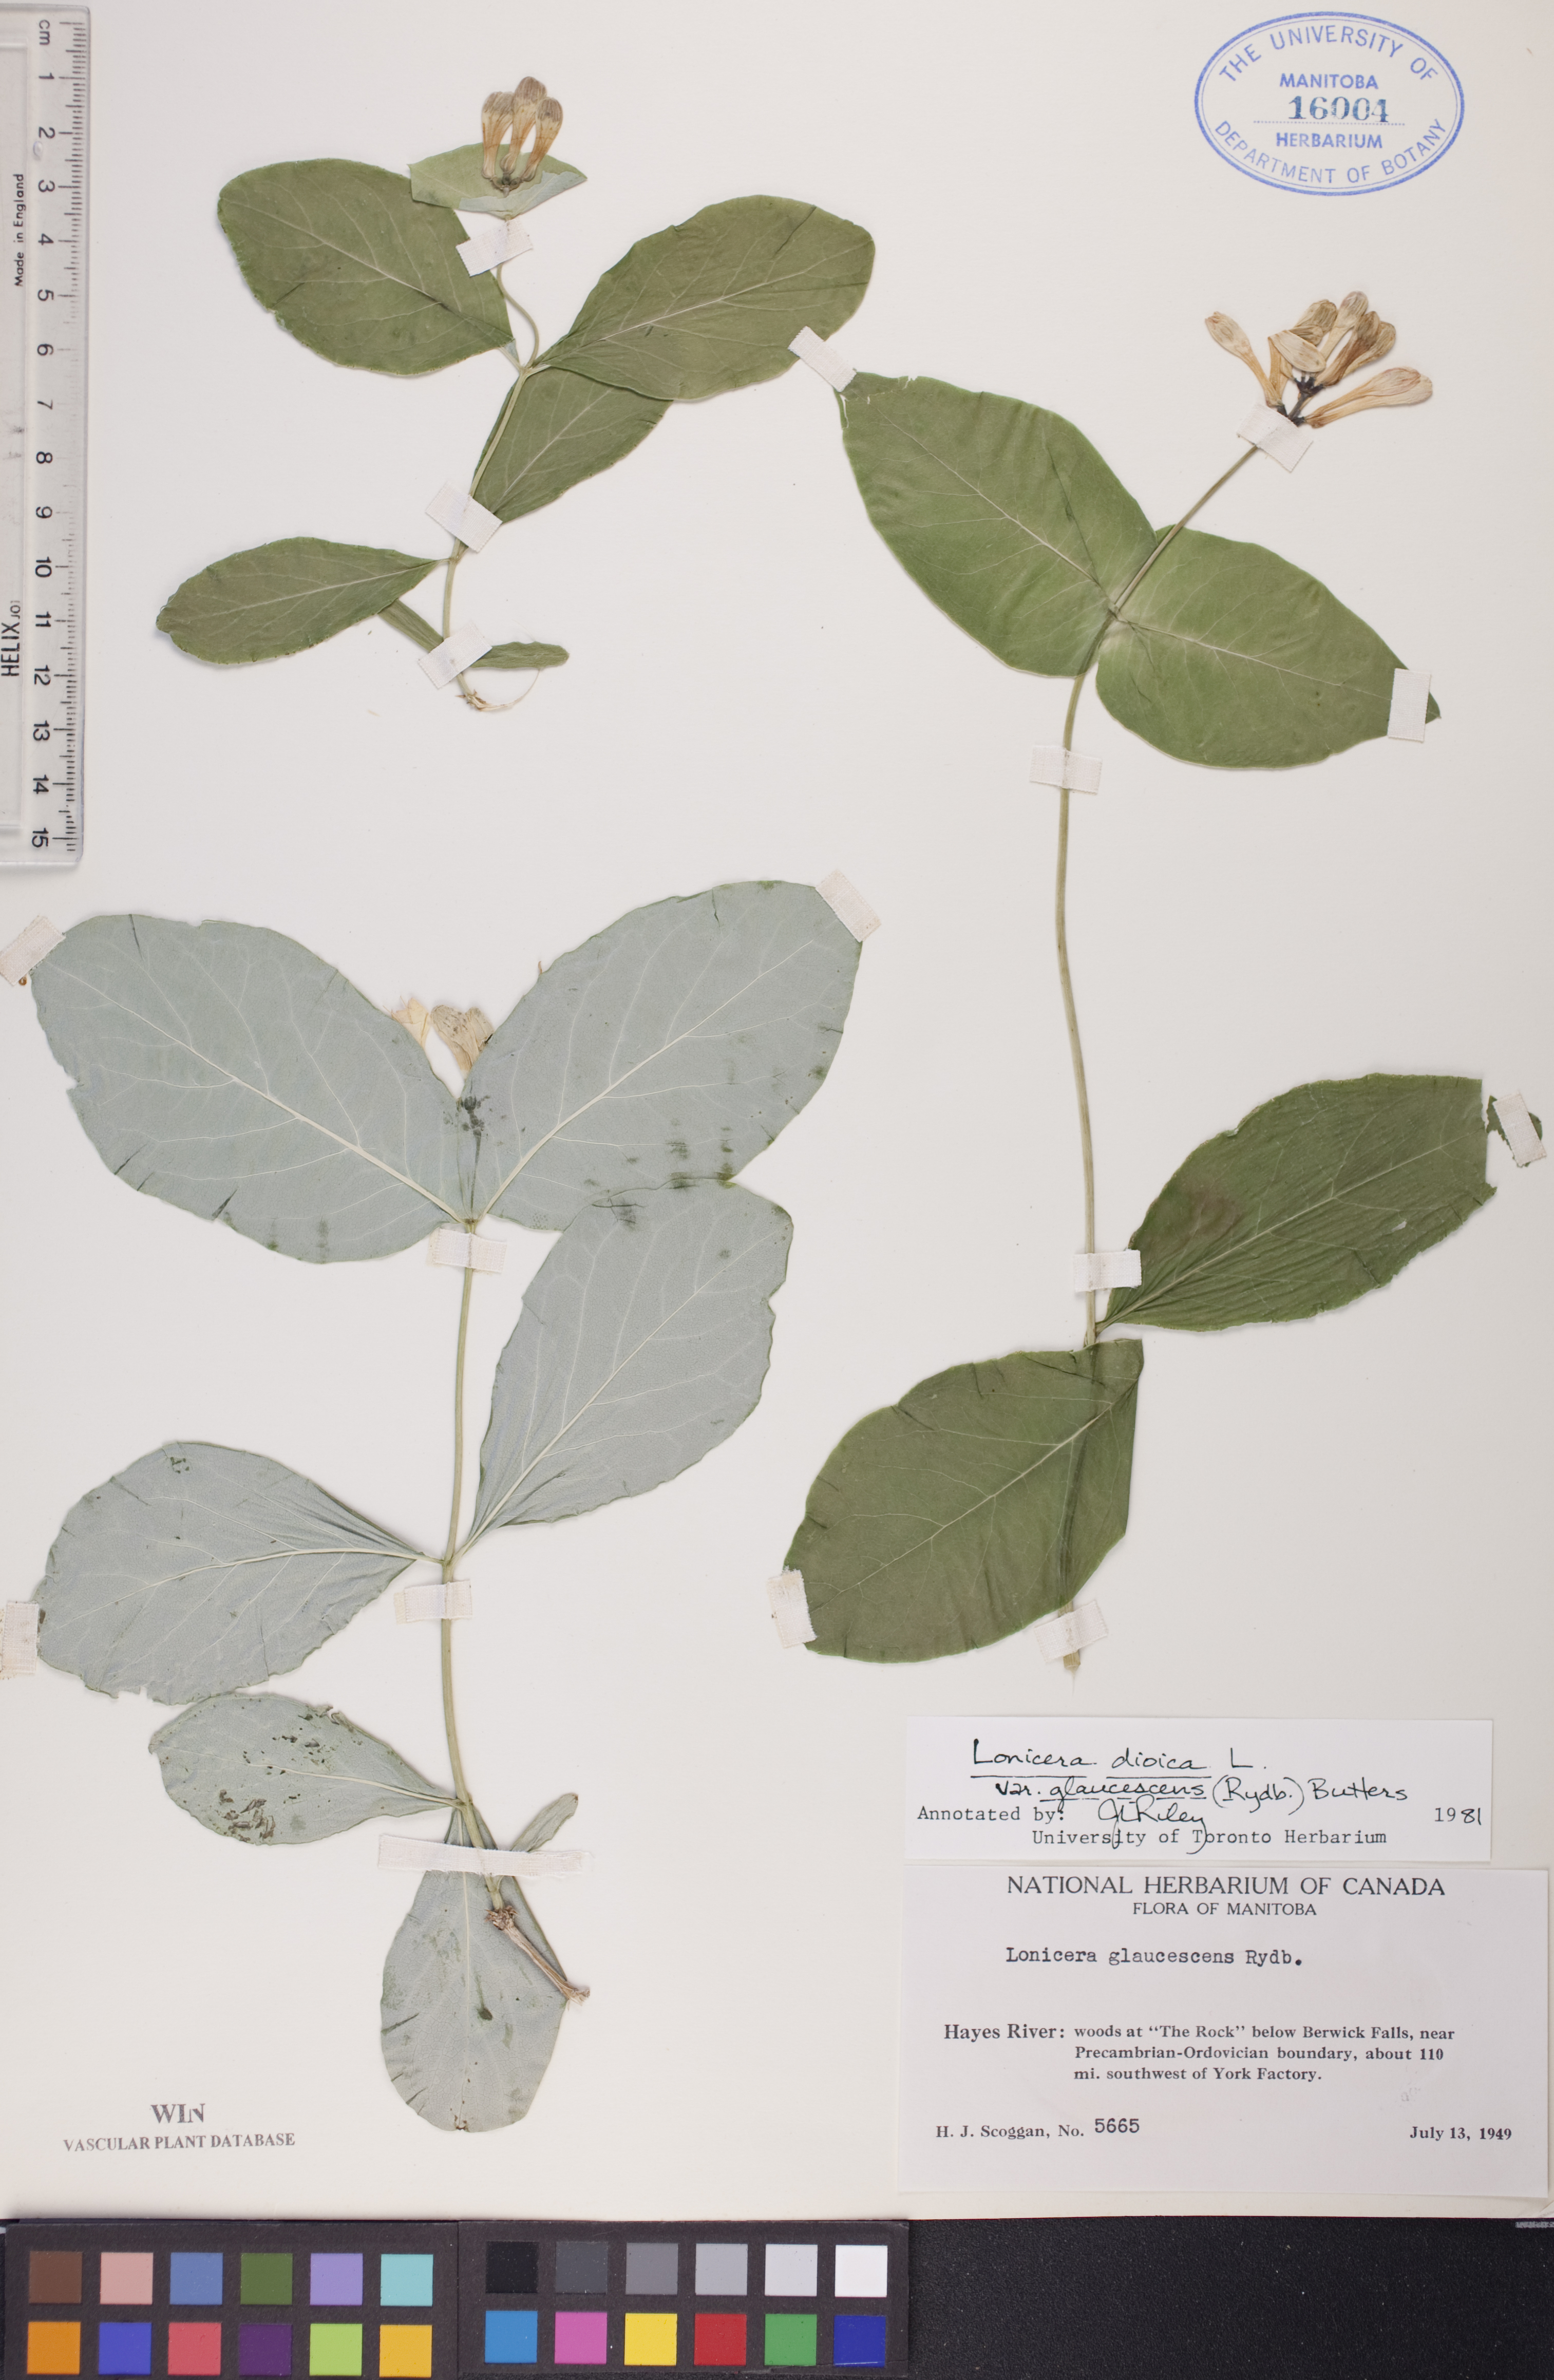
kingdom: Plantae
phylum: Tracheophyta
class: Magnoliopsida
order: Dipsacales
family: Caprifoliaceae
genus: Lonicera
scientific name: Lonicera dioica
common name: Limber honeysuckle
